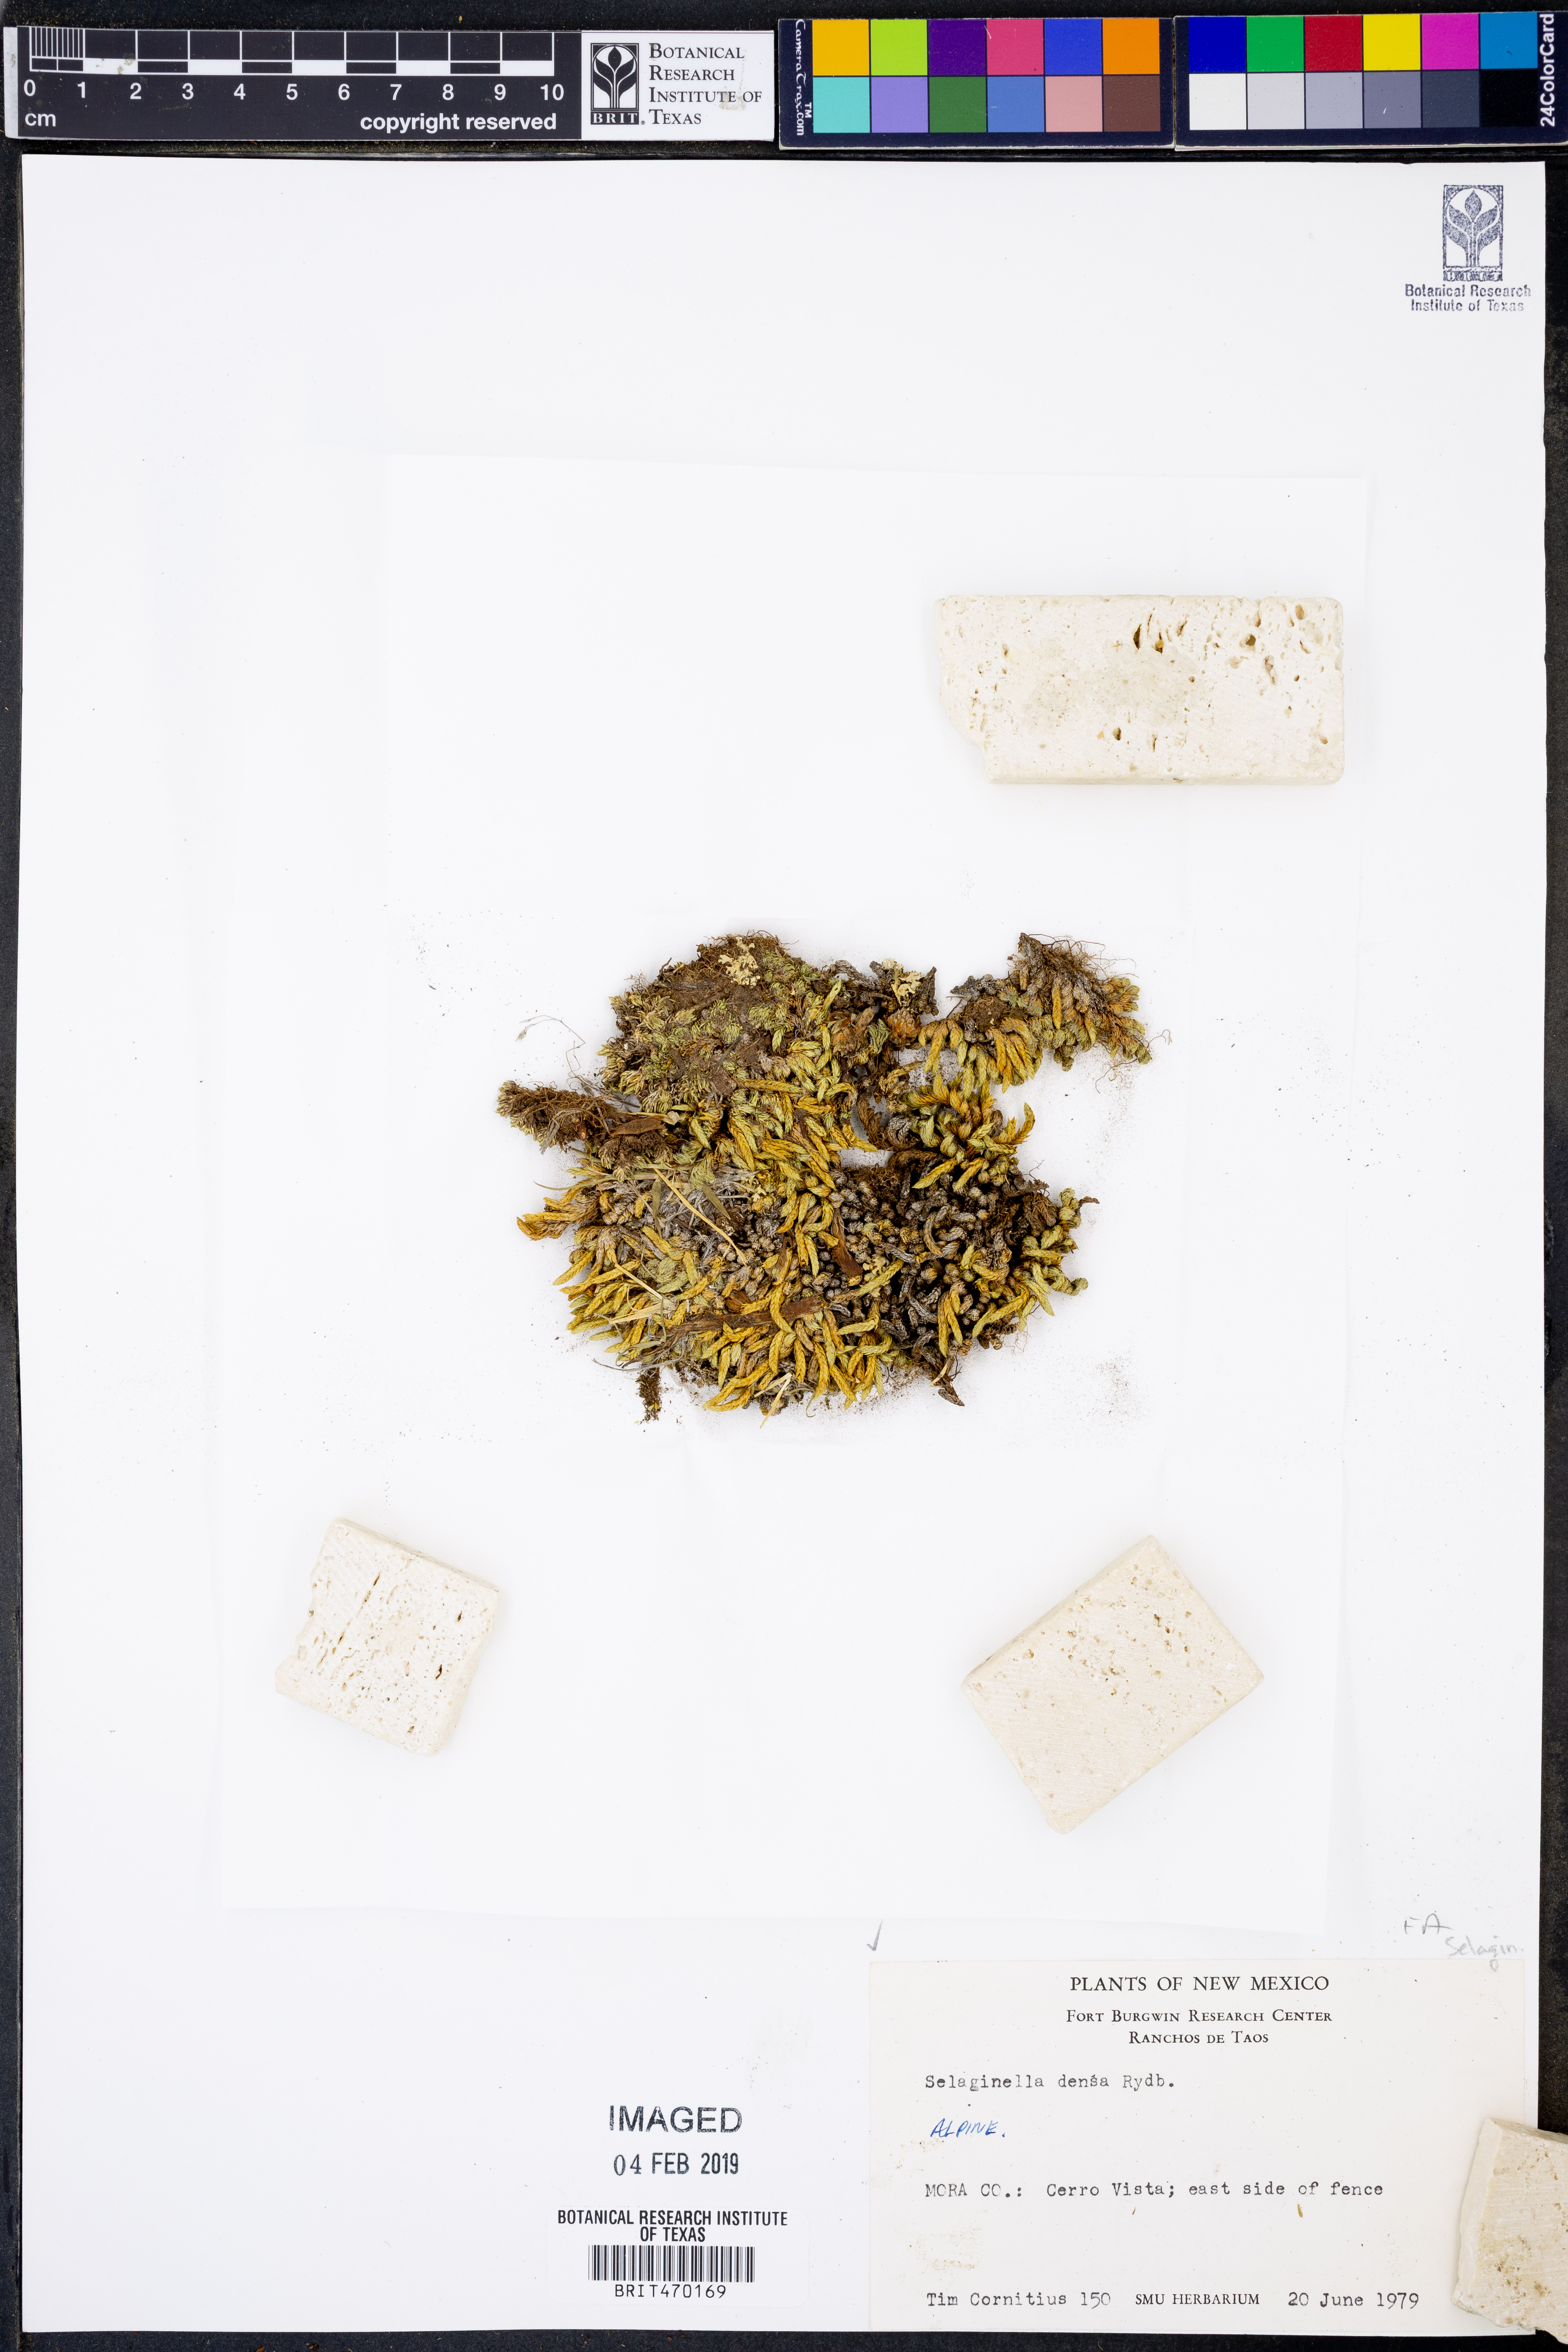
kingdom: Plantae
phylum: Tracheophyta
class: Lycopodiopsida
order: Selaginellales
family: Selaginellaceae
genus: Selaginella
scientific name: Selaginella densa
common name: Mountain spike-moss
